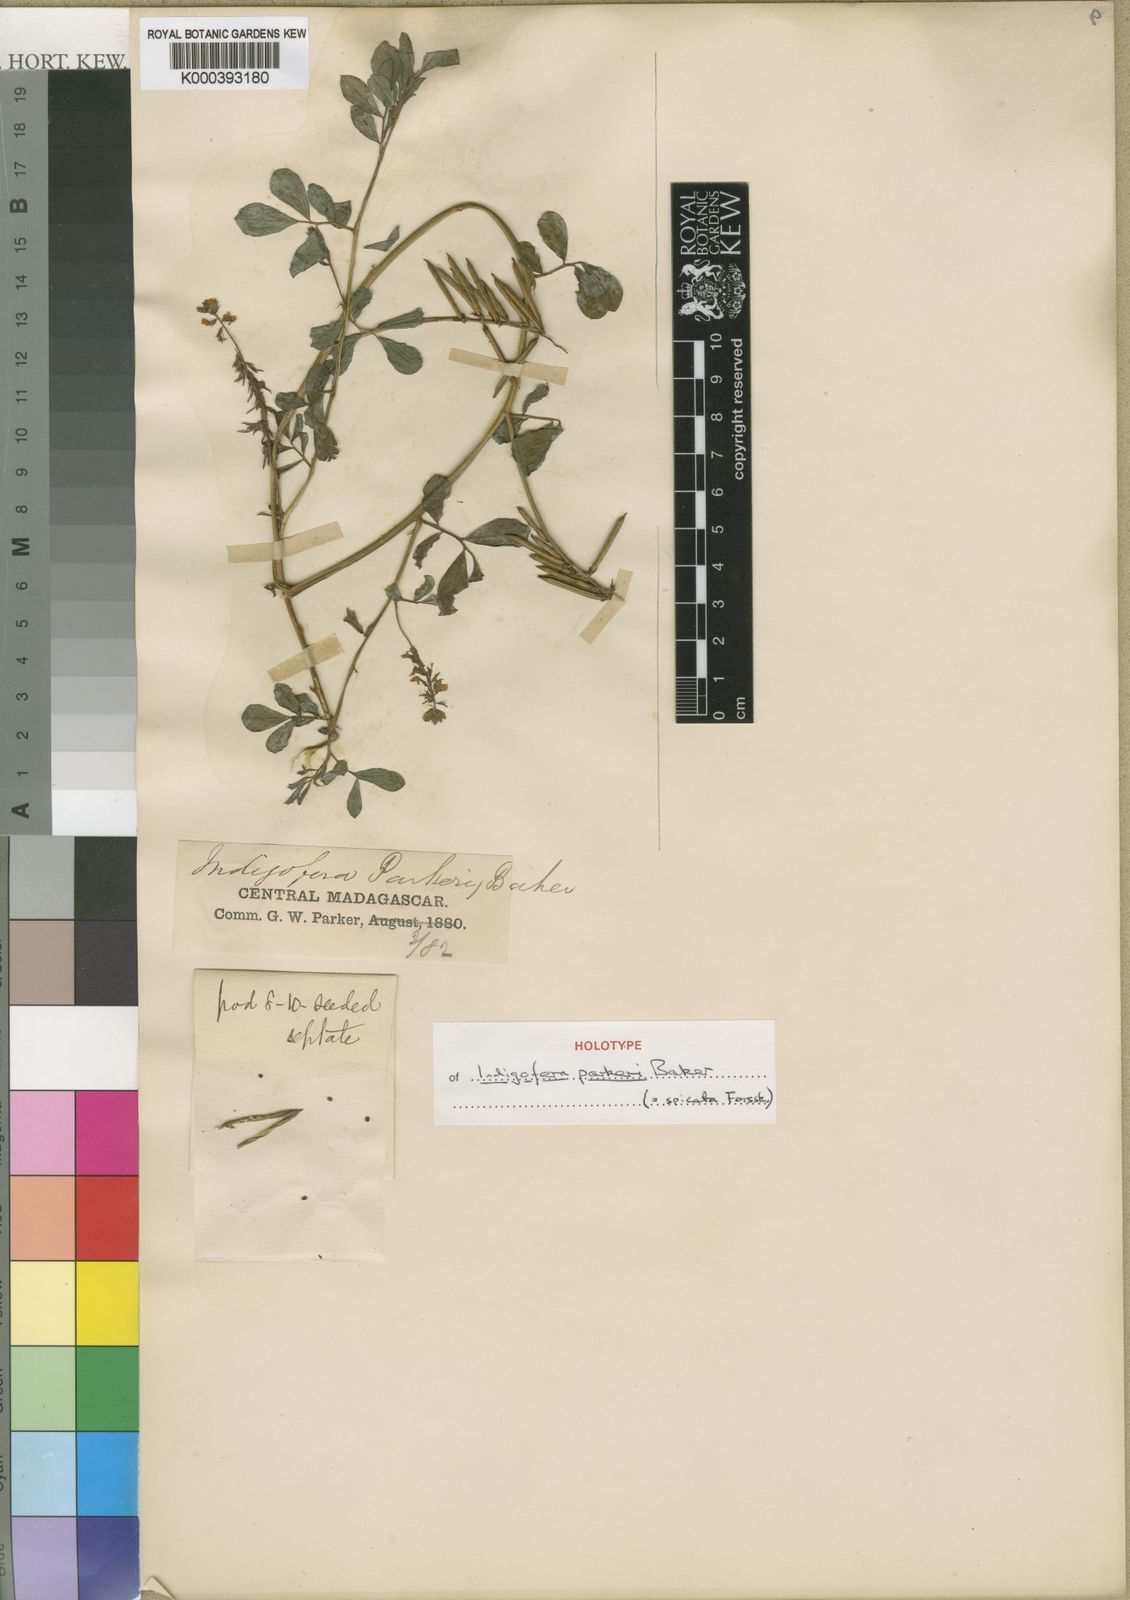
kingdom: Plantae
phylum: Tracheophyta
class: Magnoliopsida
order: Fabales
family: Fabaceae
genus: Indigofera
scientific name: Indigofera spicata
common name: Creeping indigo
